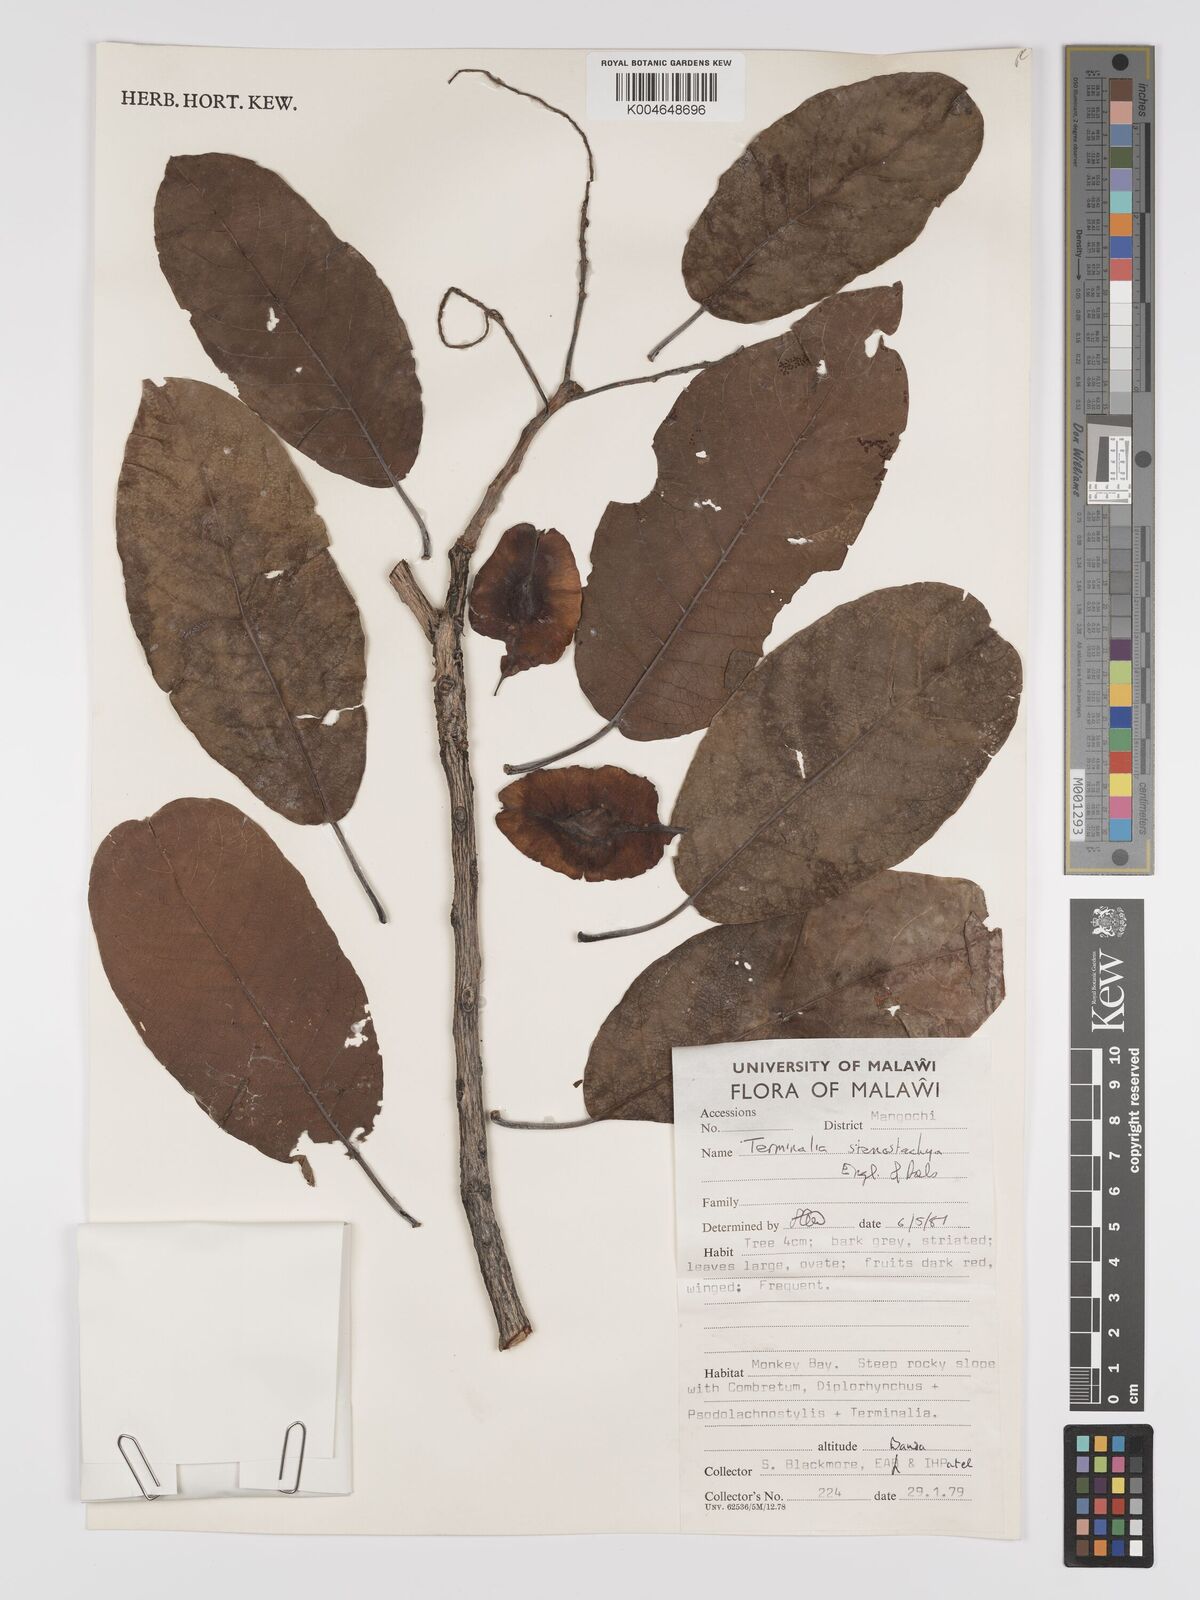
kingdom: Plantae
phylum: Tracheophyta
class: Magnoliopsida
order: Myrtales
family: Combretaceae
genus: Terminalia
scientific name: Terminalia stenostachya
